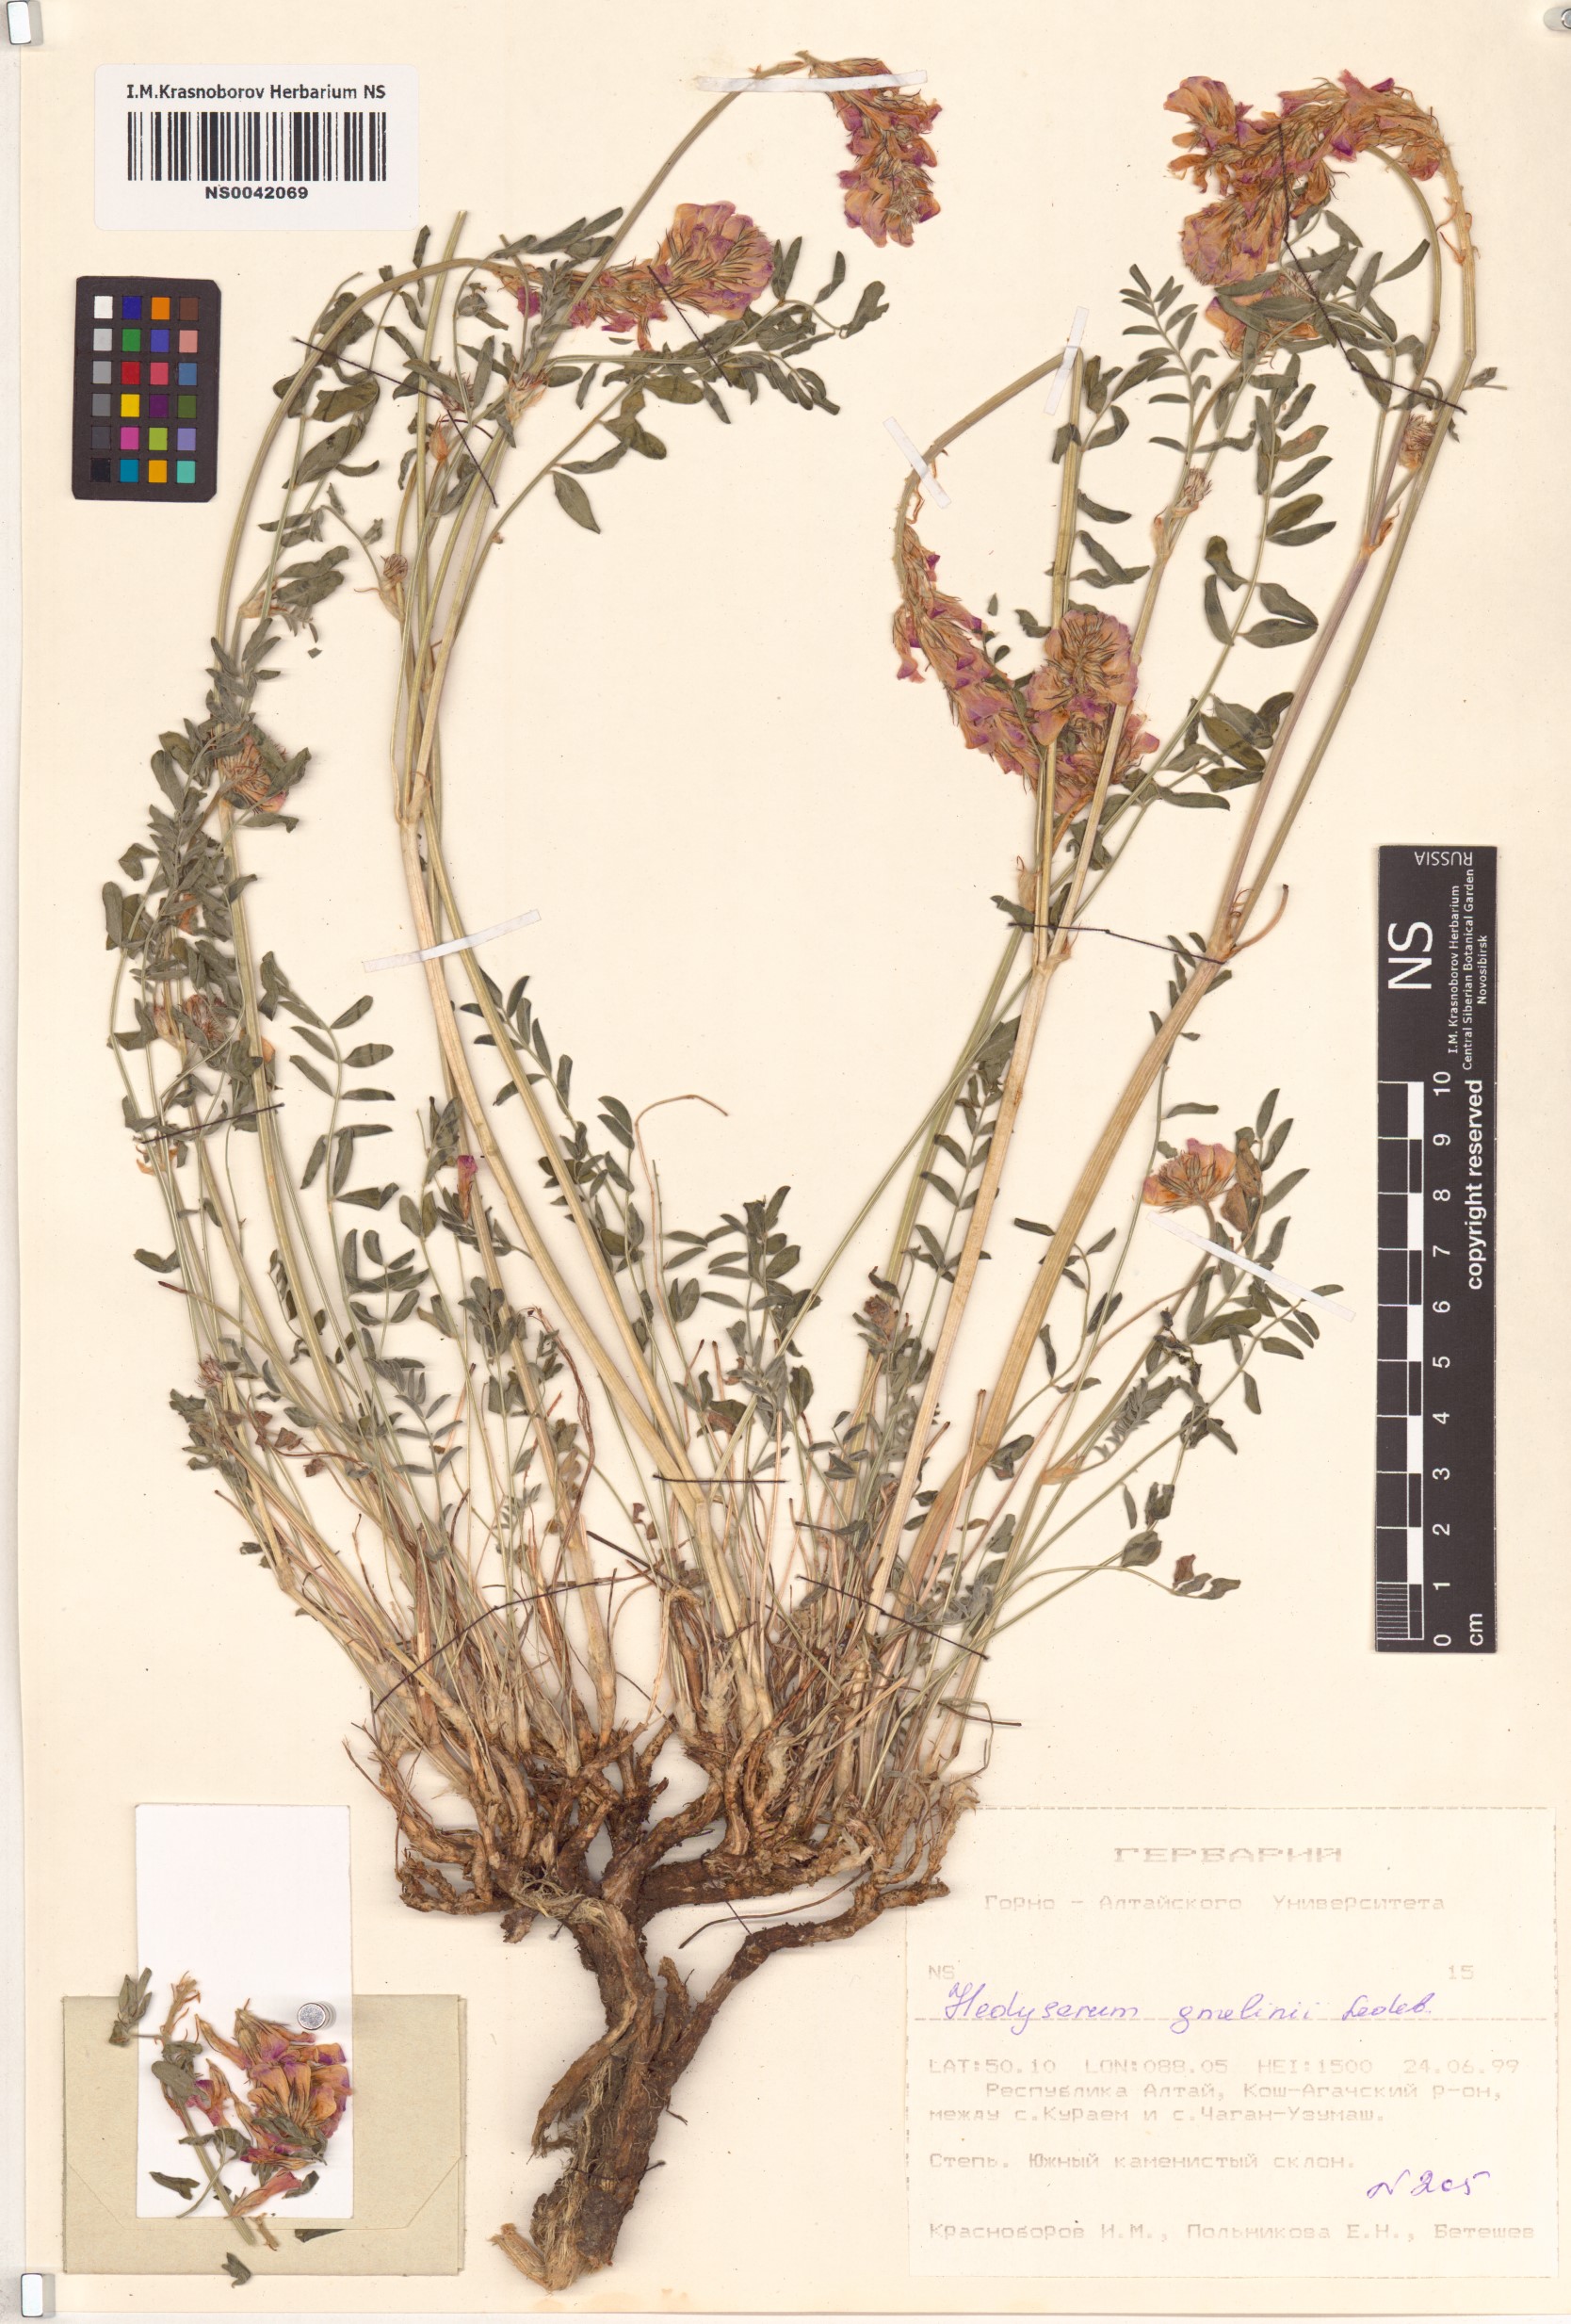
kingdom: Plantae
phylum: Tracheophyta
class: Magnoliopsida
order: Fabales
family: Fabaceae
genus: Hedysarum
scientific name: Hedysarum gmelinii
